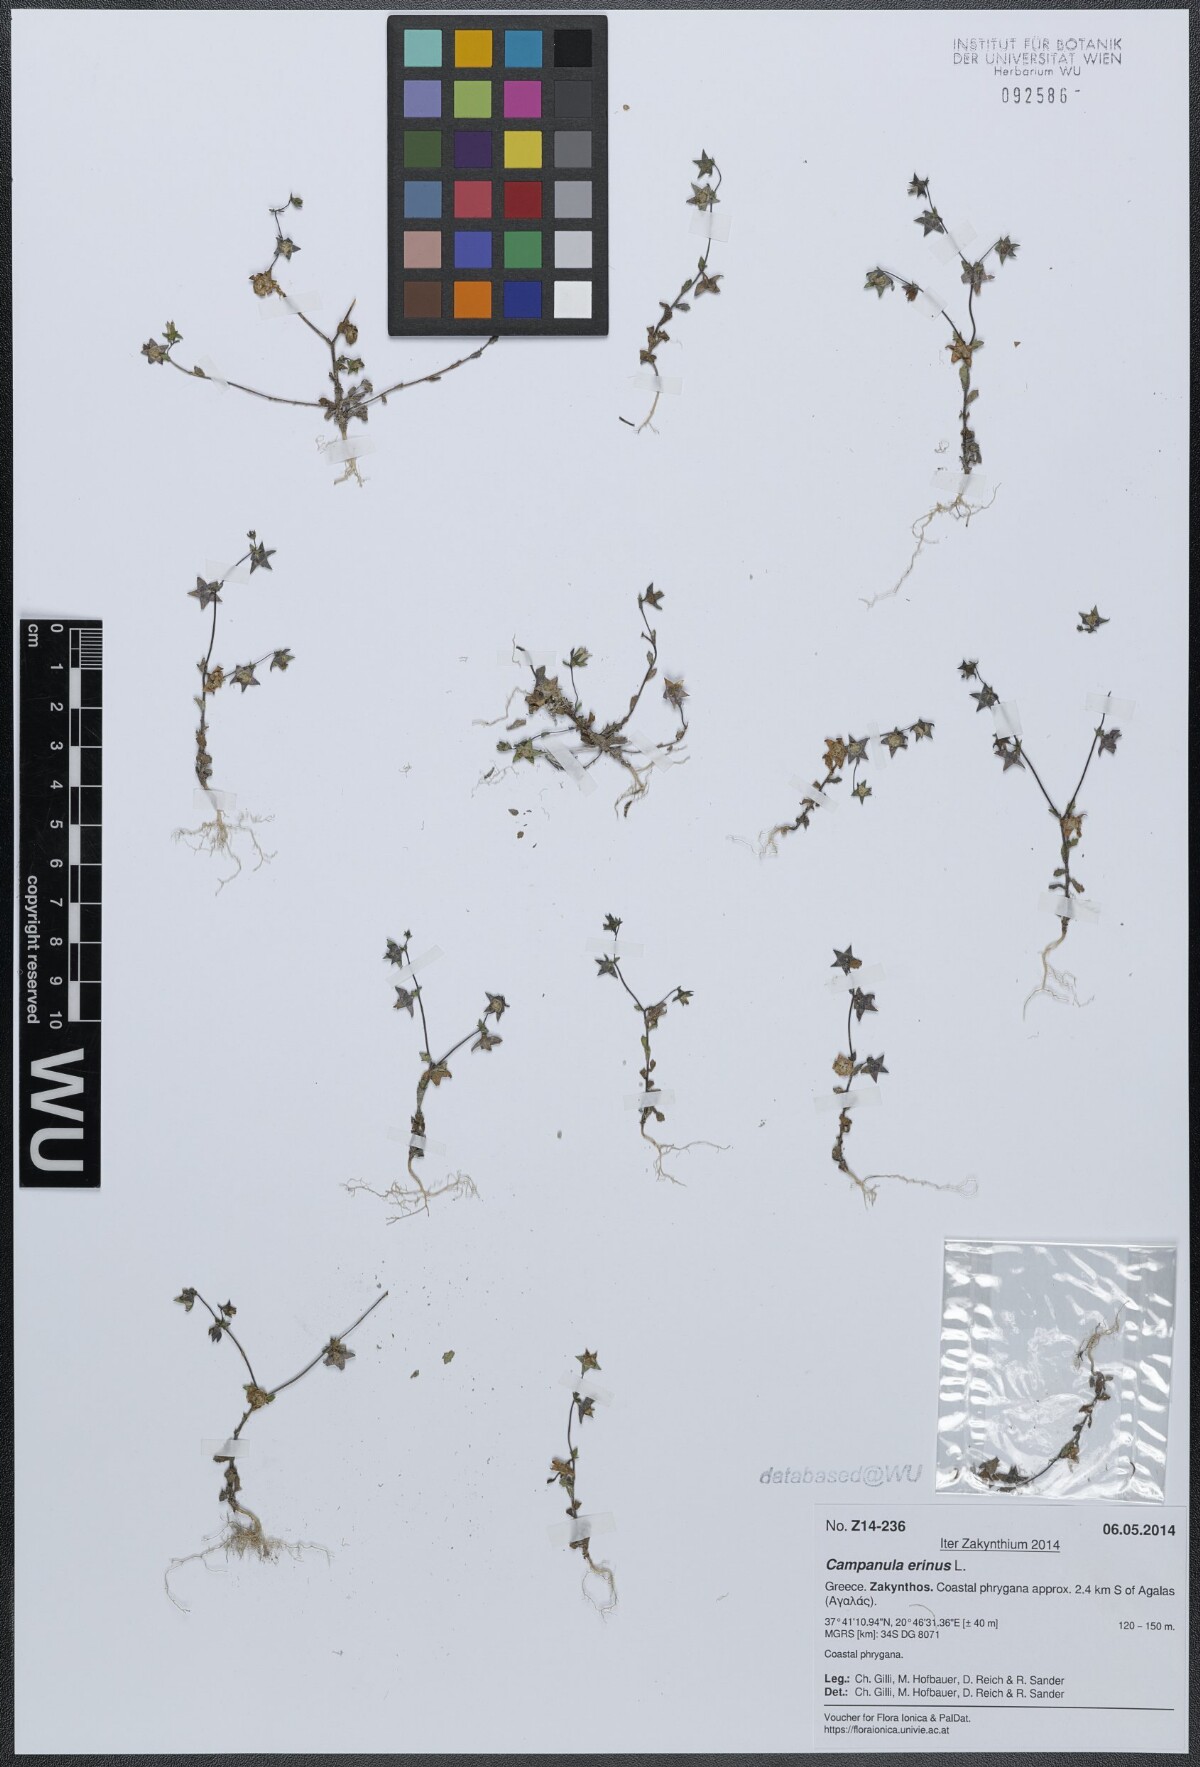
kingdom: Plantae
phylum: Tracheophyta
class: Magnoliopsida
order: Asterales
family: Campanulaceae
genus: Campanula
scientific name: Campanula erinus
